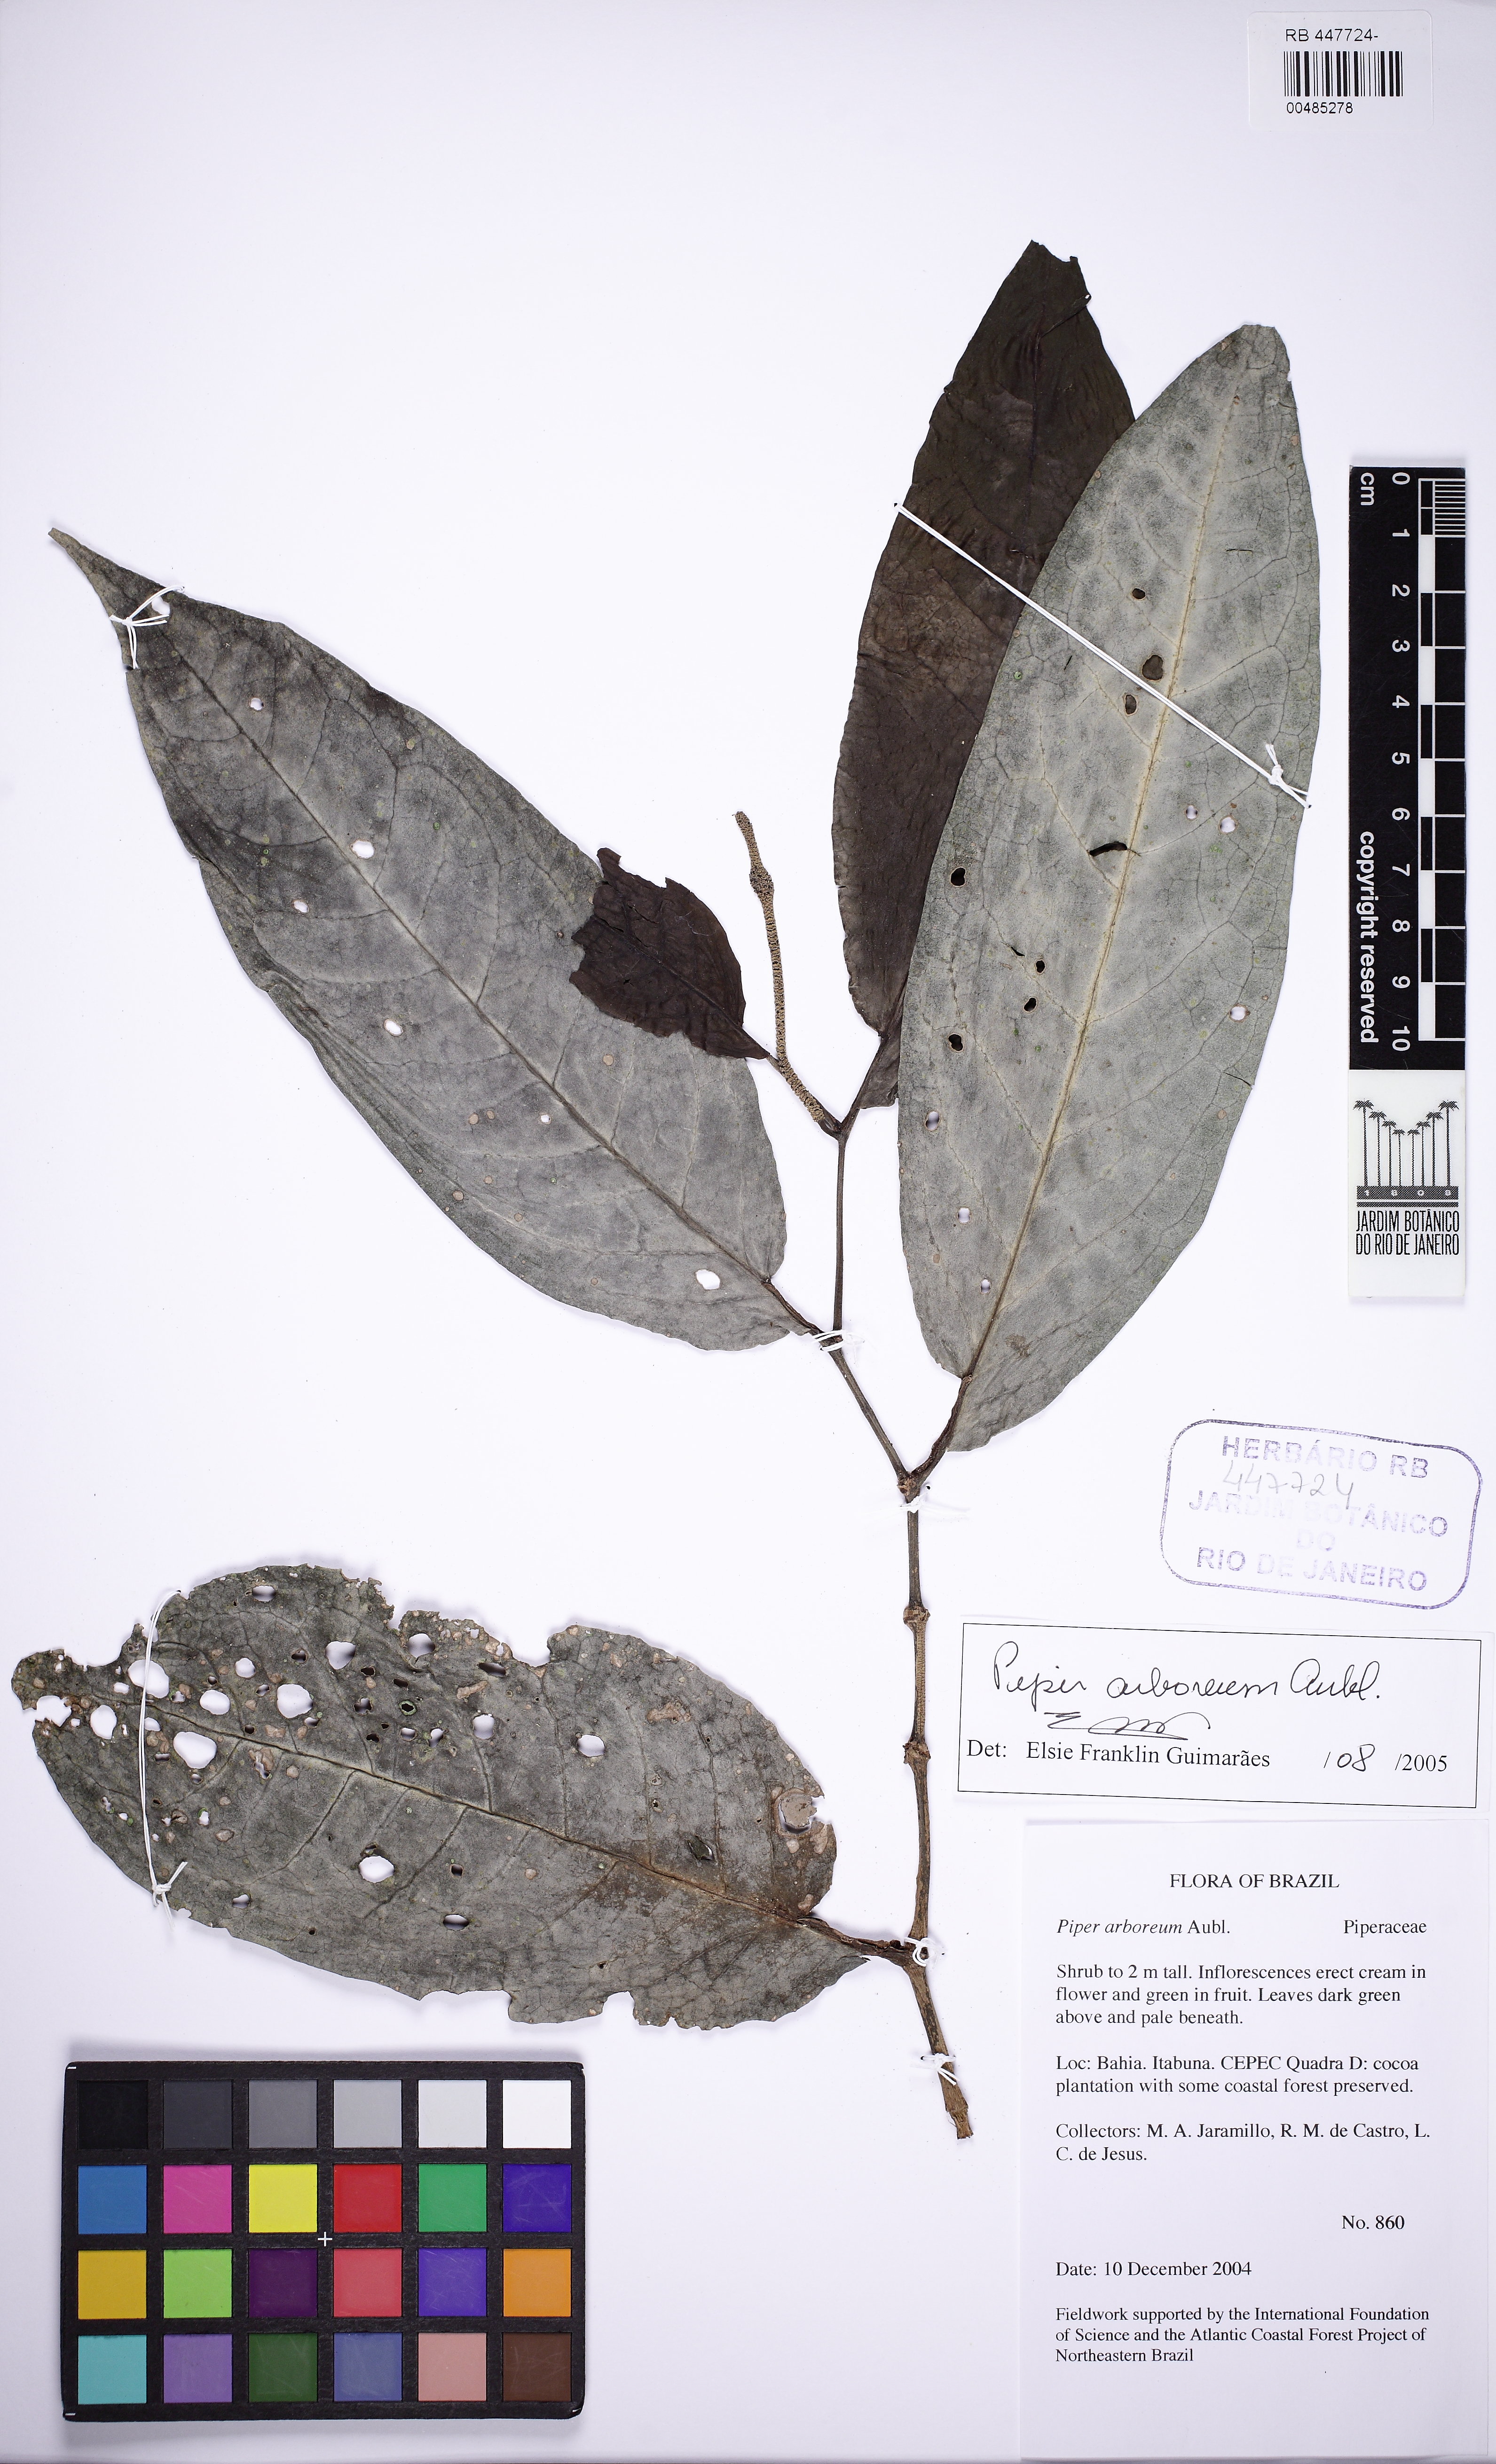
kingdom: Plantae
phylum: Tracheophyta
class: Magnoliopsida
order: Piperales
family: Piperaceae
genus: Piper
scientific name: Piper arboreum
